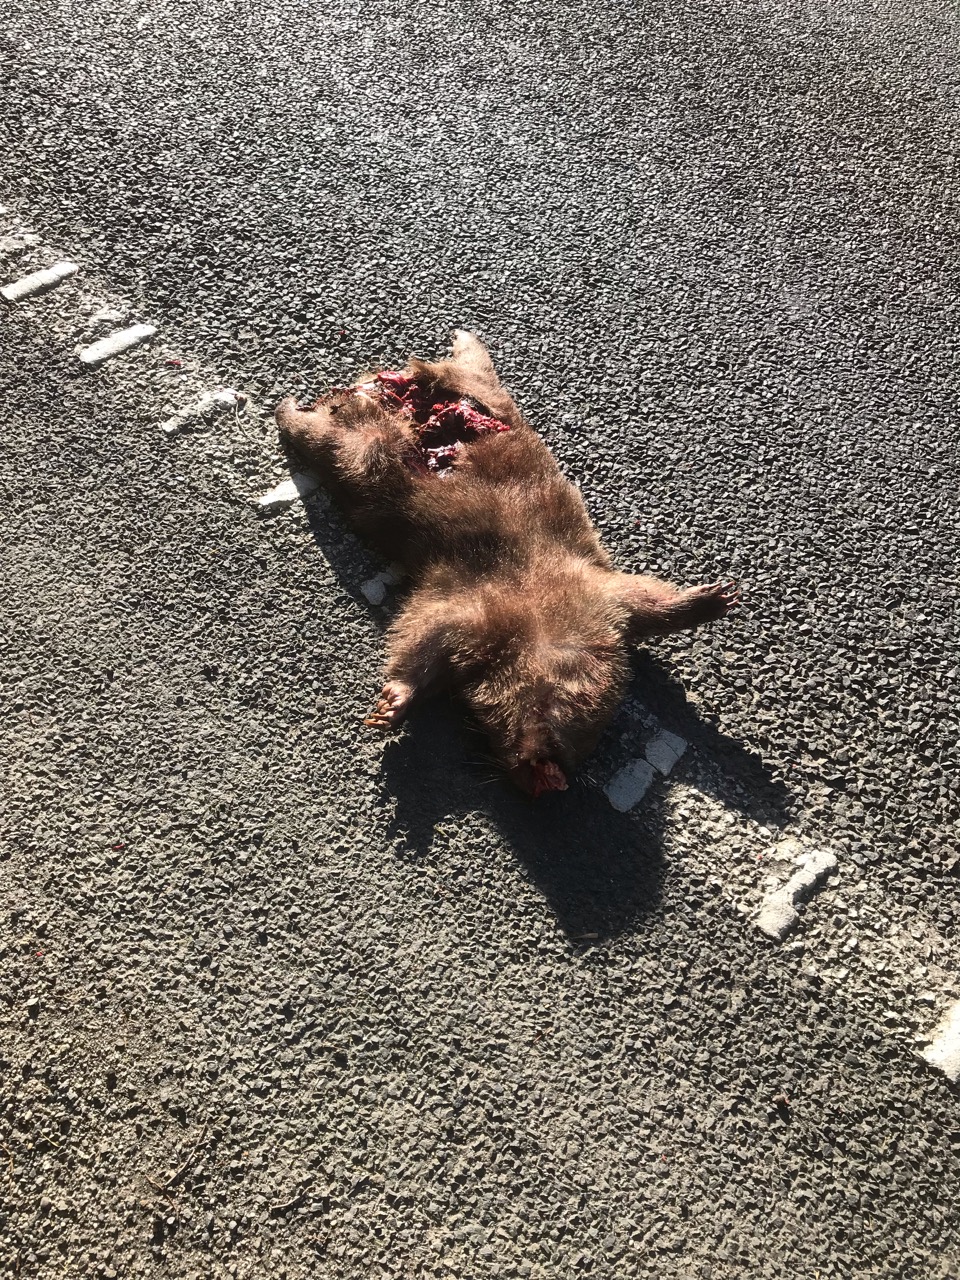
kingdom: Animalia
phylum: Chordata
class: Mammalia
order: Diprotodontia
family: Vombatidae
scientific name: Vombatidae
